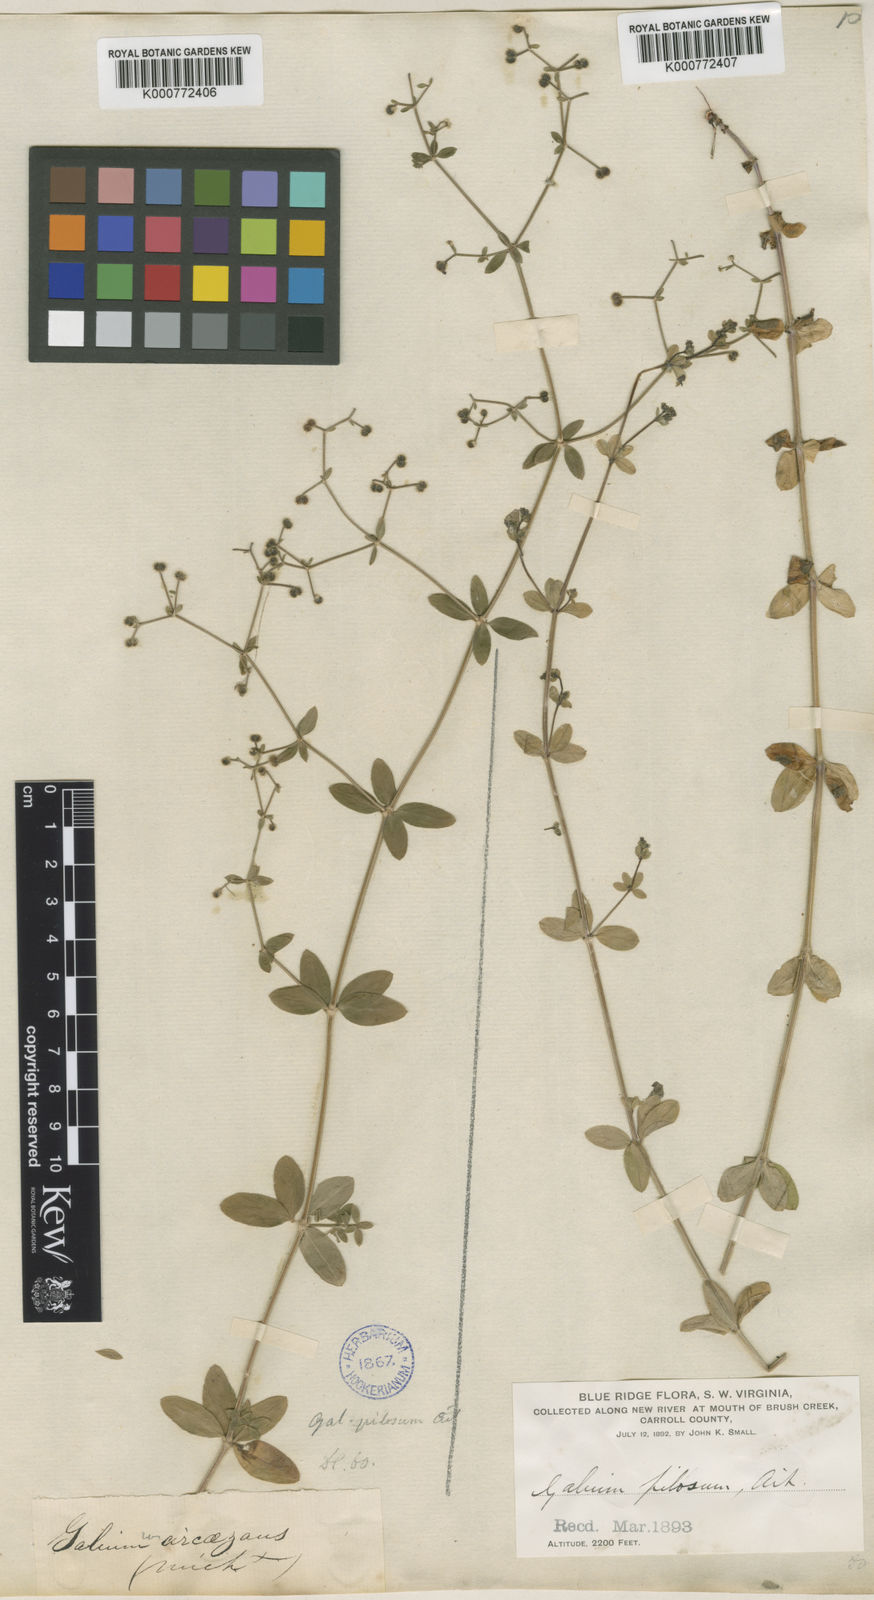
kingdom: Plantae
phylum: Tracheophyta
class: Magnoliopsida
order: Gentianales
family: Rubiaceae
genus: Galium
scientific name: Galium pilosum
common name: Hairy bedstraw
